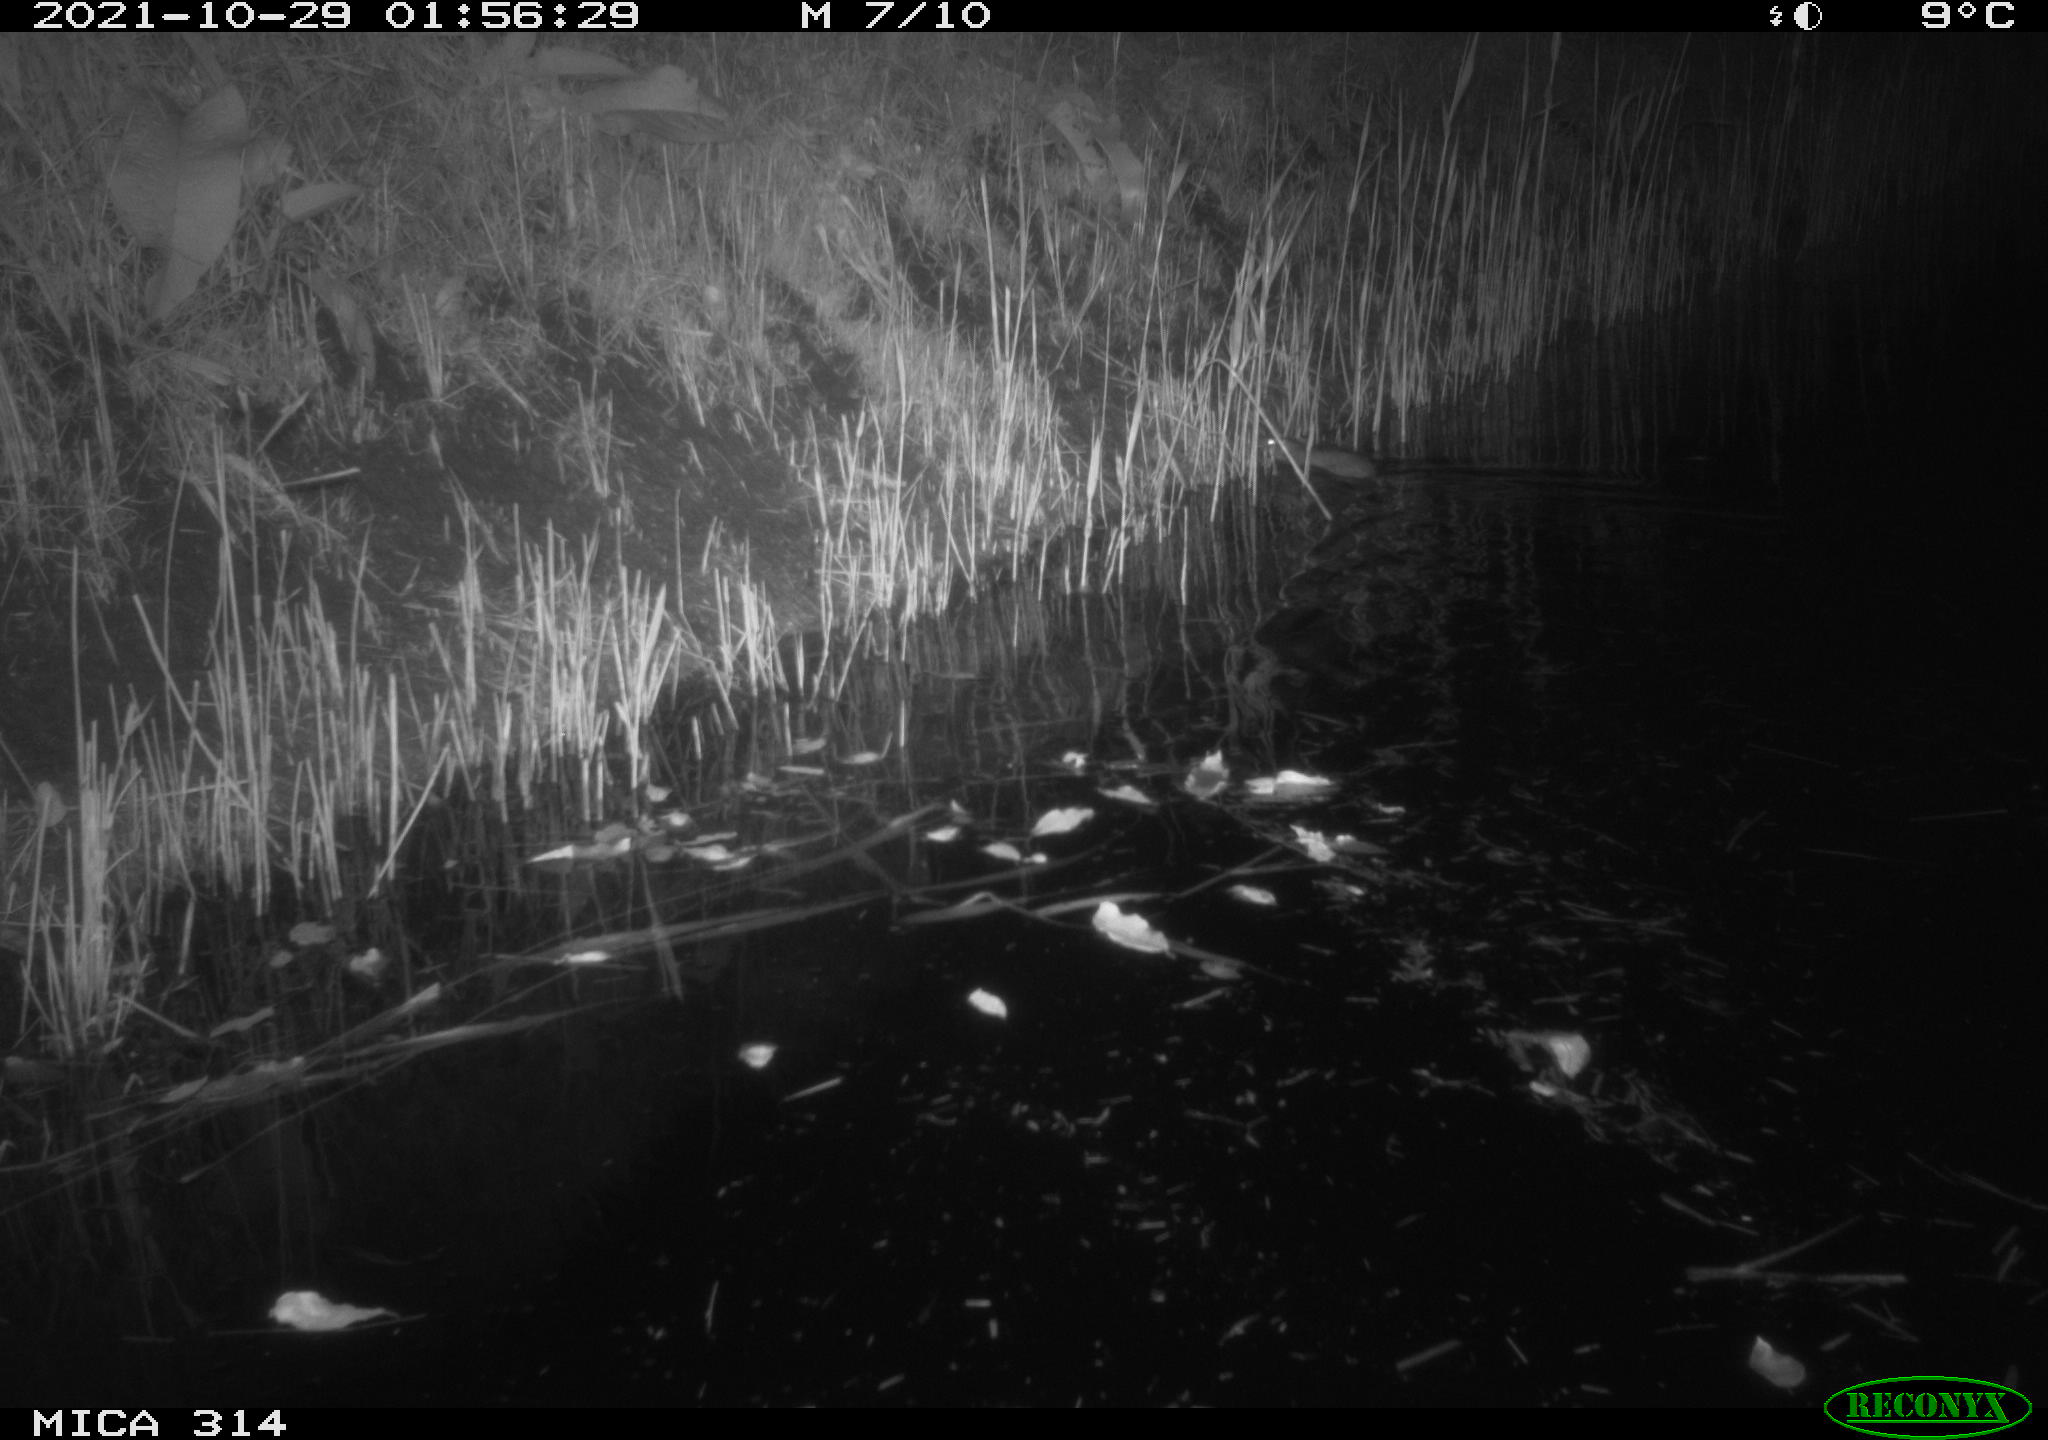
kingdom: Animalia
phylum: Chordata
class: Mammalia
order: Rodentia
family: Muridae
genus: Rattus
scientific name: Rattus norvegicus
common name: Brown rat
